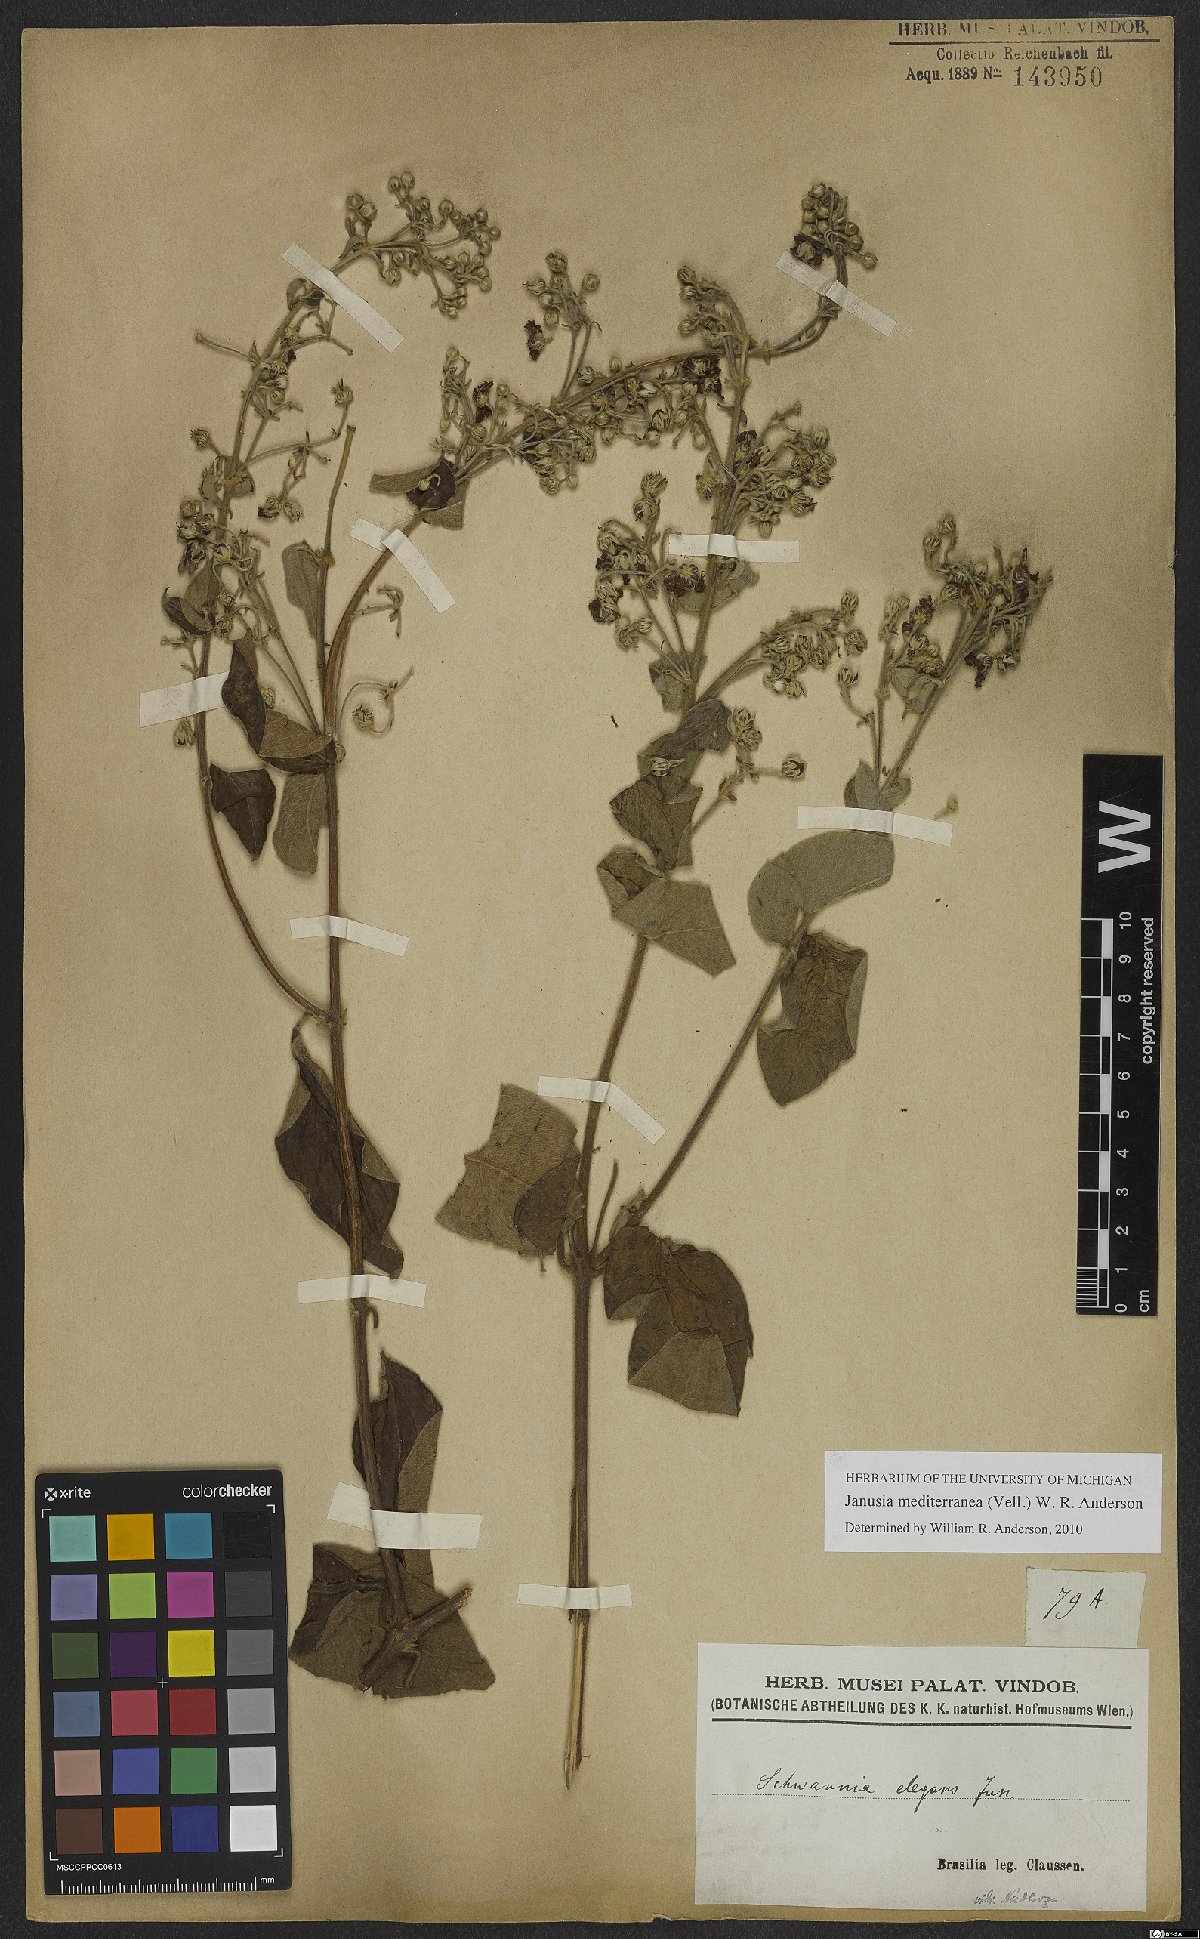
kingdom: Plantae
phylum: Tracheophyta
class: Magnoliopsida
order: Malpighiales
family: Malpighiaceae
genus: Janusia
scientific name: Janusia mediterranea
